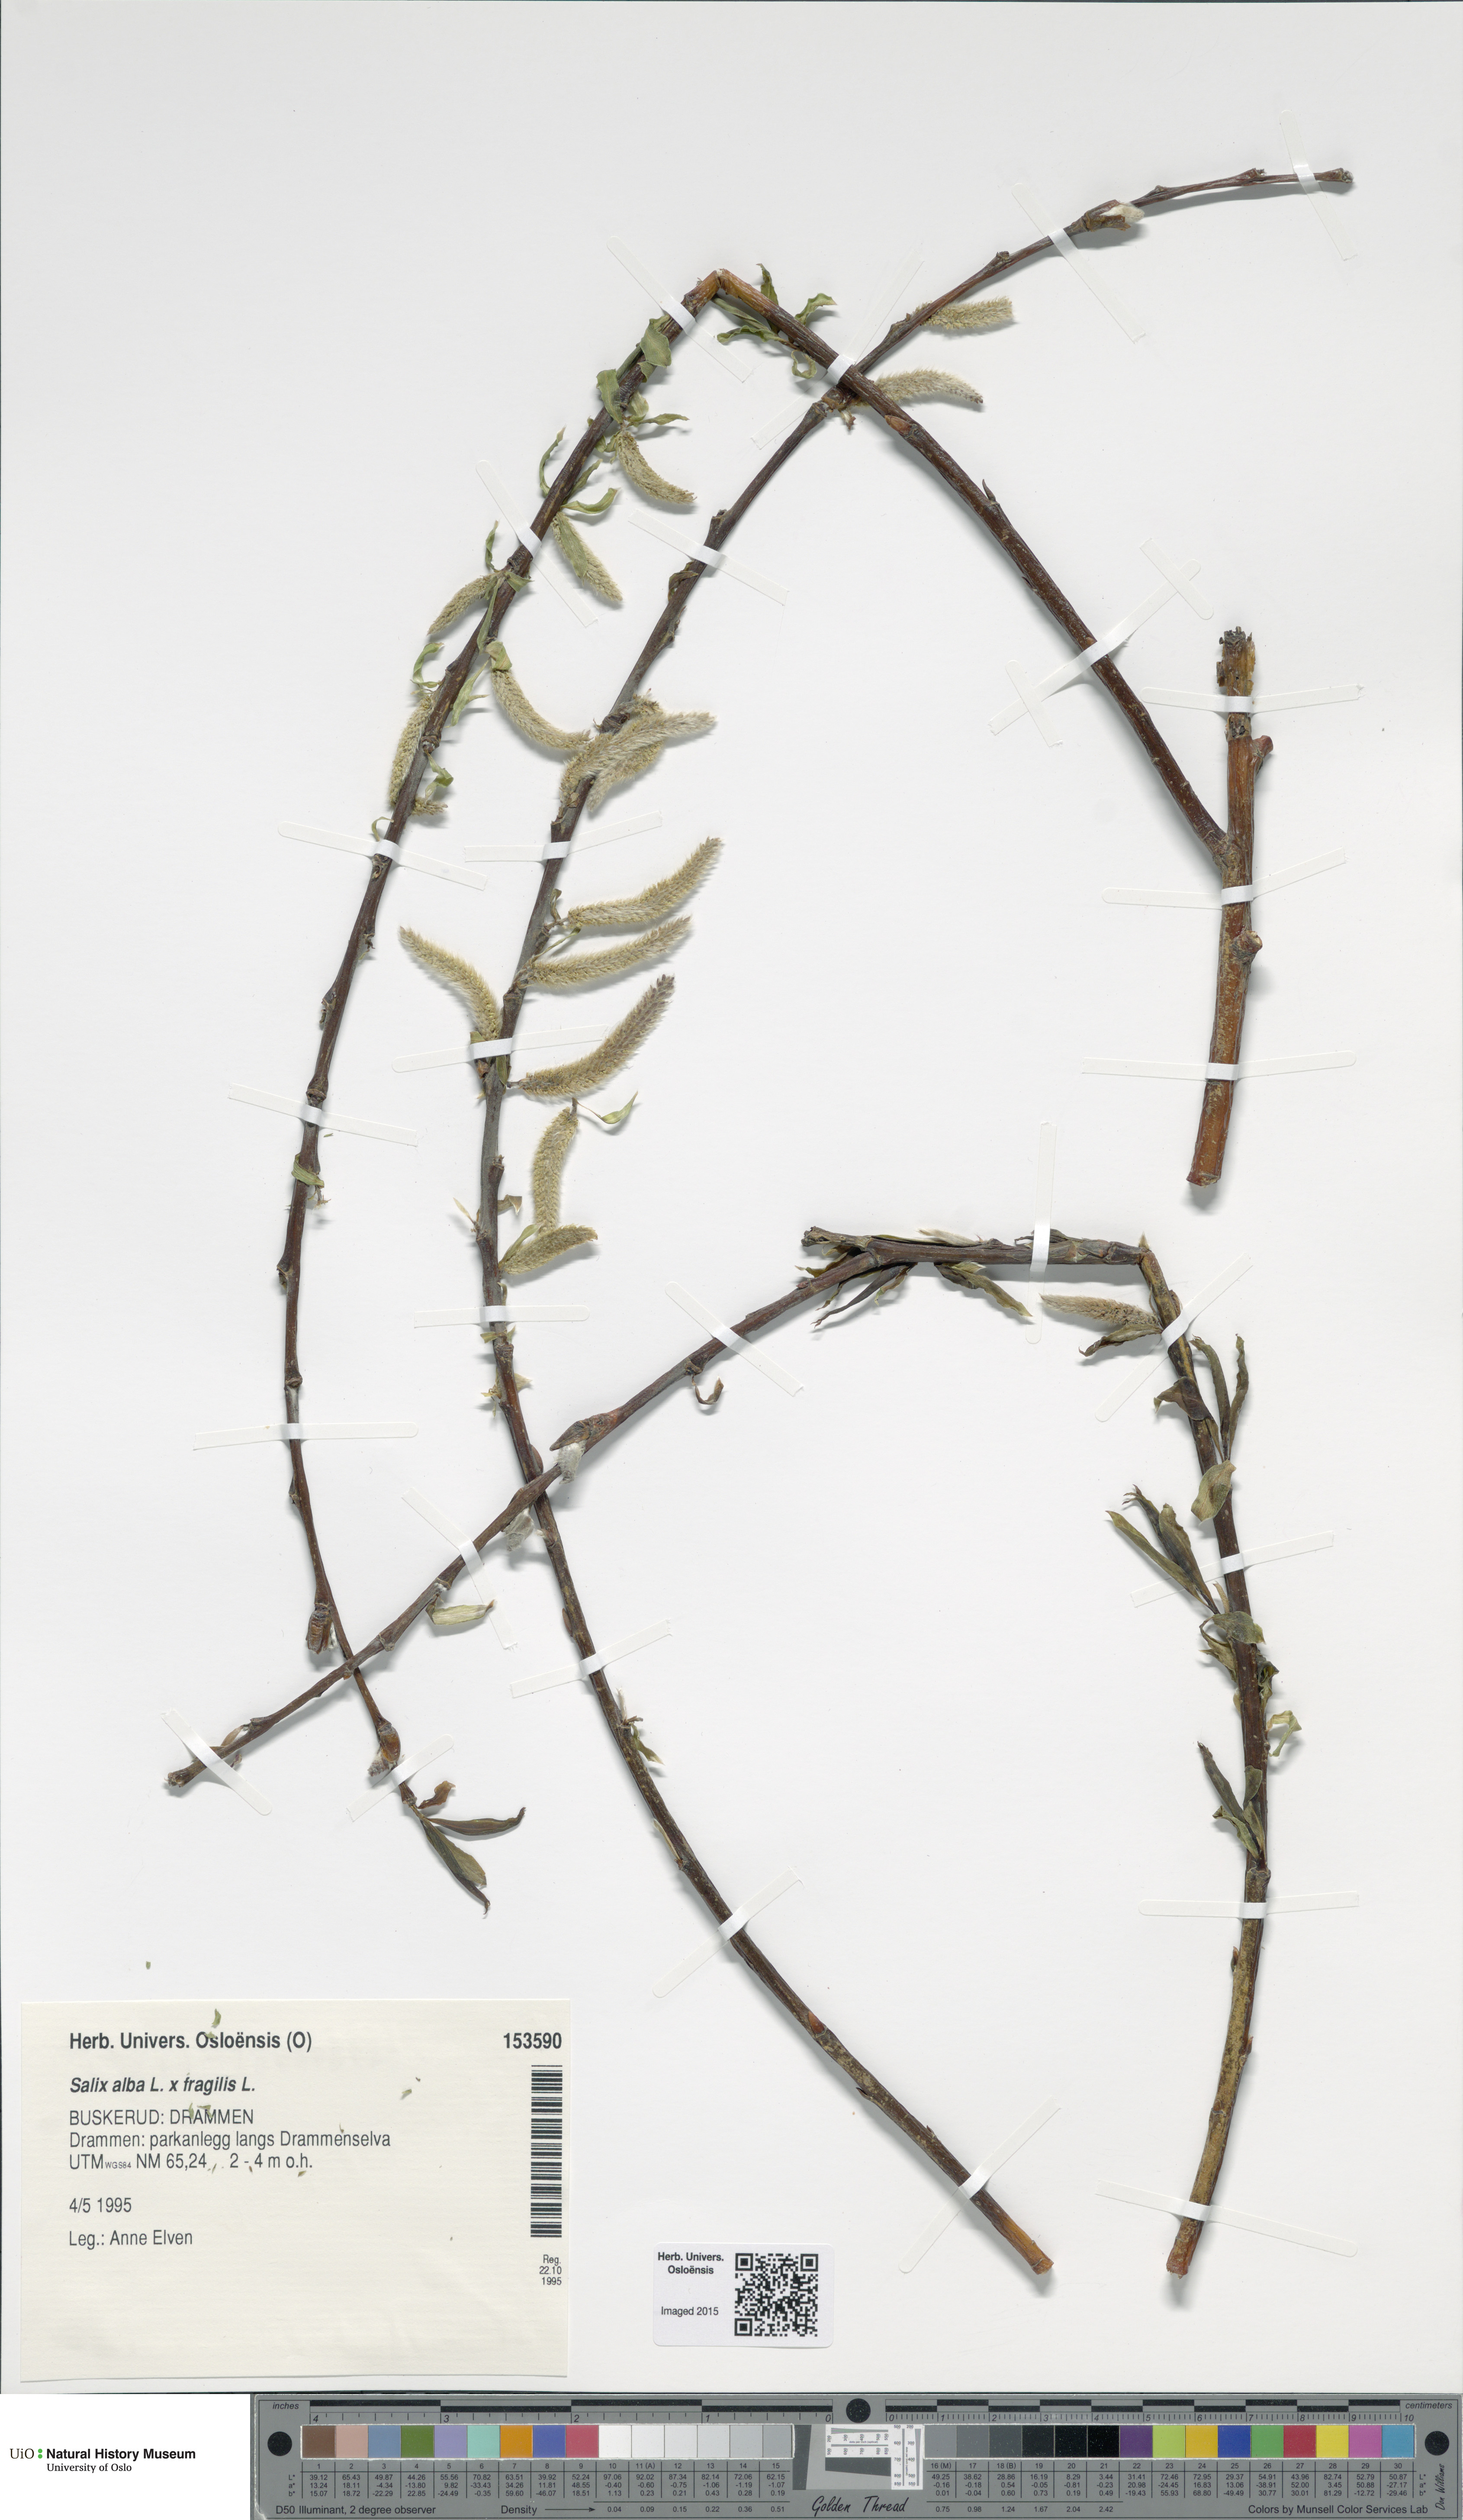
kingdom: Plantae
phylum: Tracheophyta
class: Magnoliopsida
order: Malpighiales
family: Salicaceae
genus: Salix
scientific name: Salix
